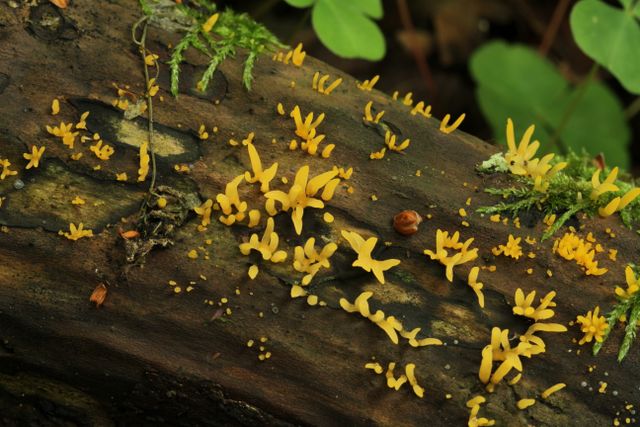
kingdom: Fungi
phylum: Basidiomycota
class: Dacrymycetes
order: Dacrymycetales
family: Dacrymycetaceae
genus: Calocera
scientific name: Calocera cornea
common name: liden guldgaffel
